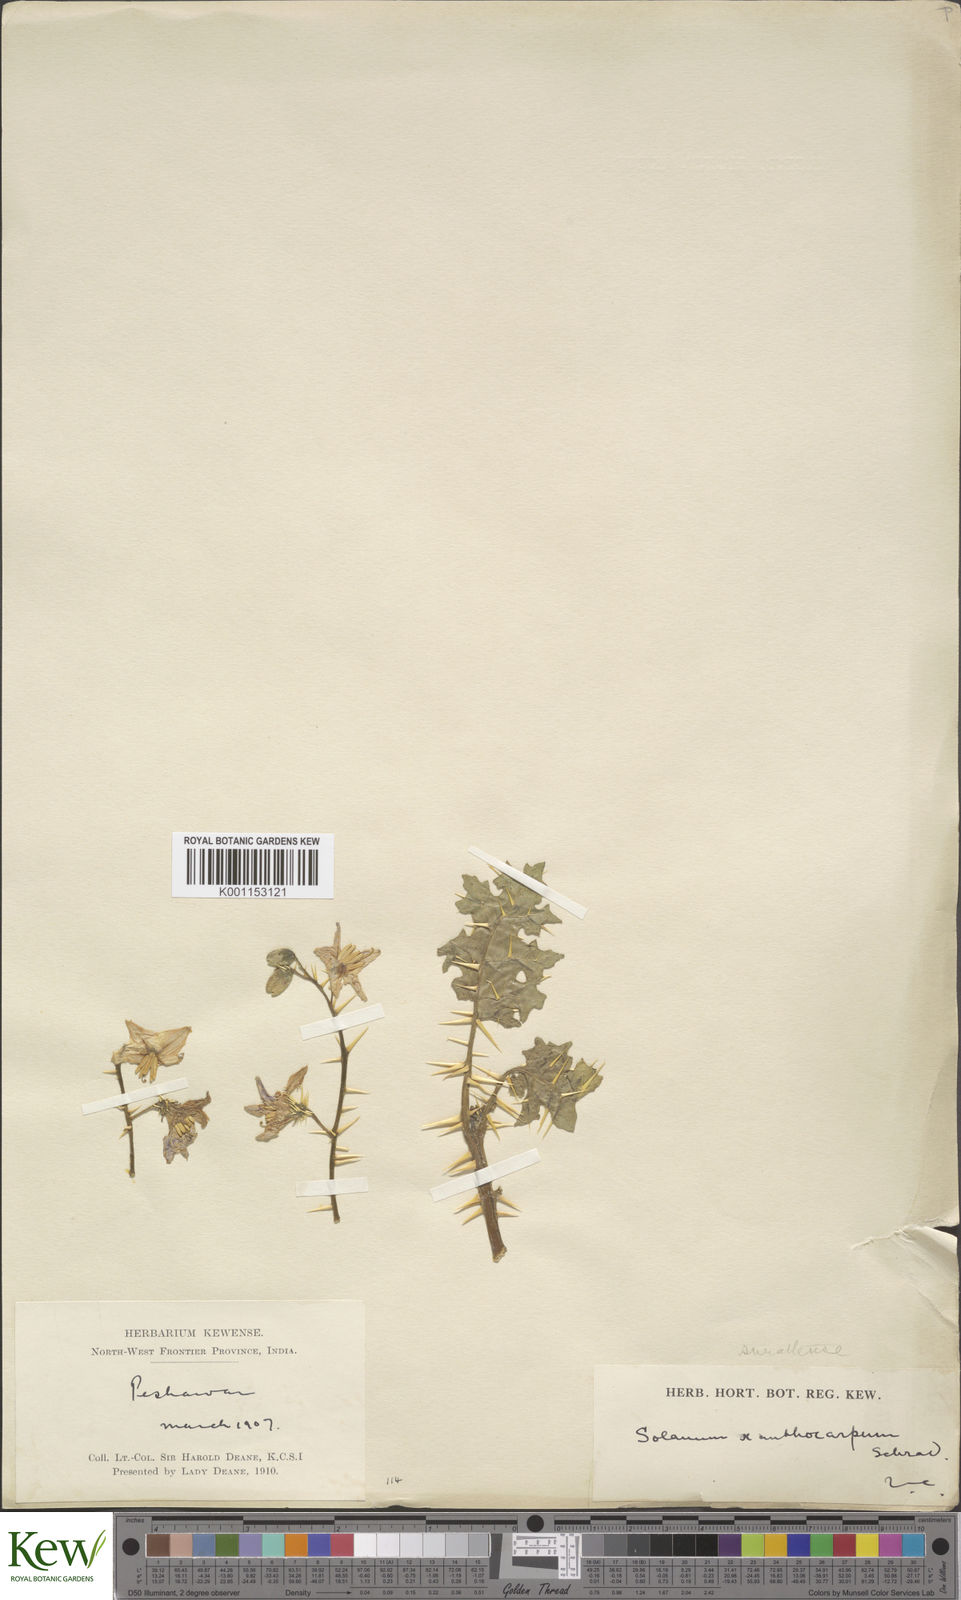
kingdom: Plantae
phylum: Tracheophyta
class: Magnoliopsida
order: Solanales
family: Solanaceae
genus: Solanum
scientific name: Solanum virginianum
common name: Surattense nightshade
